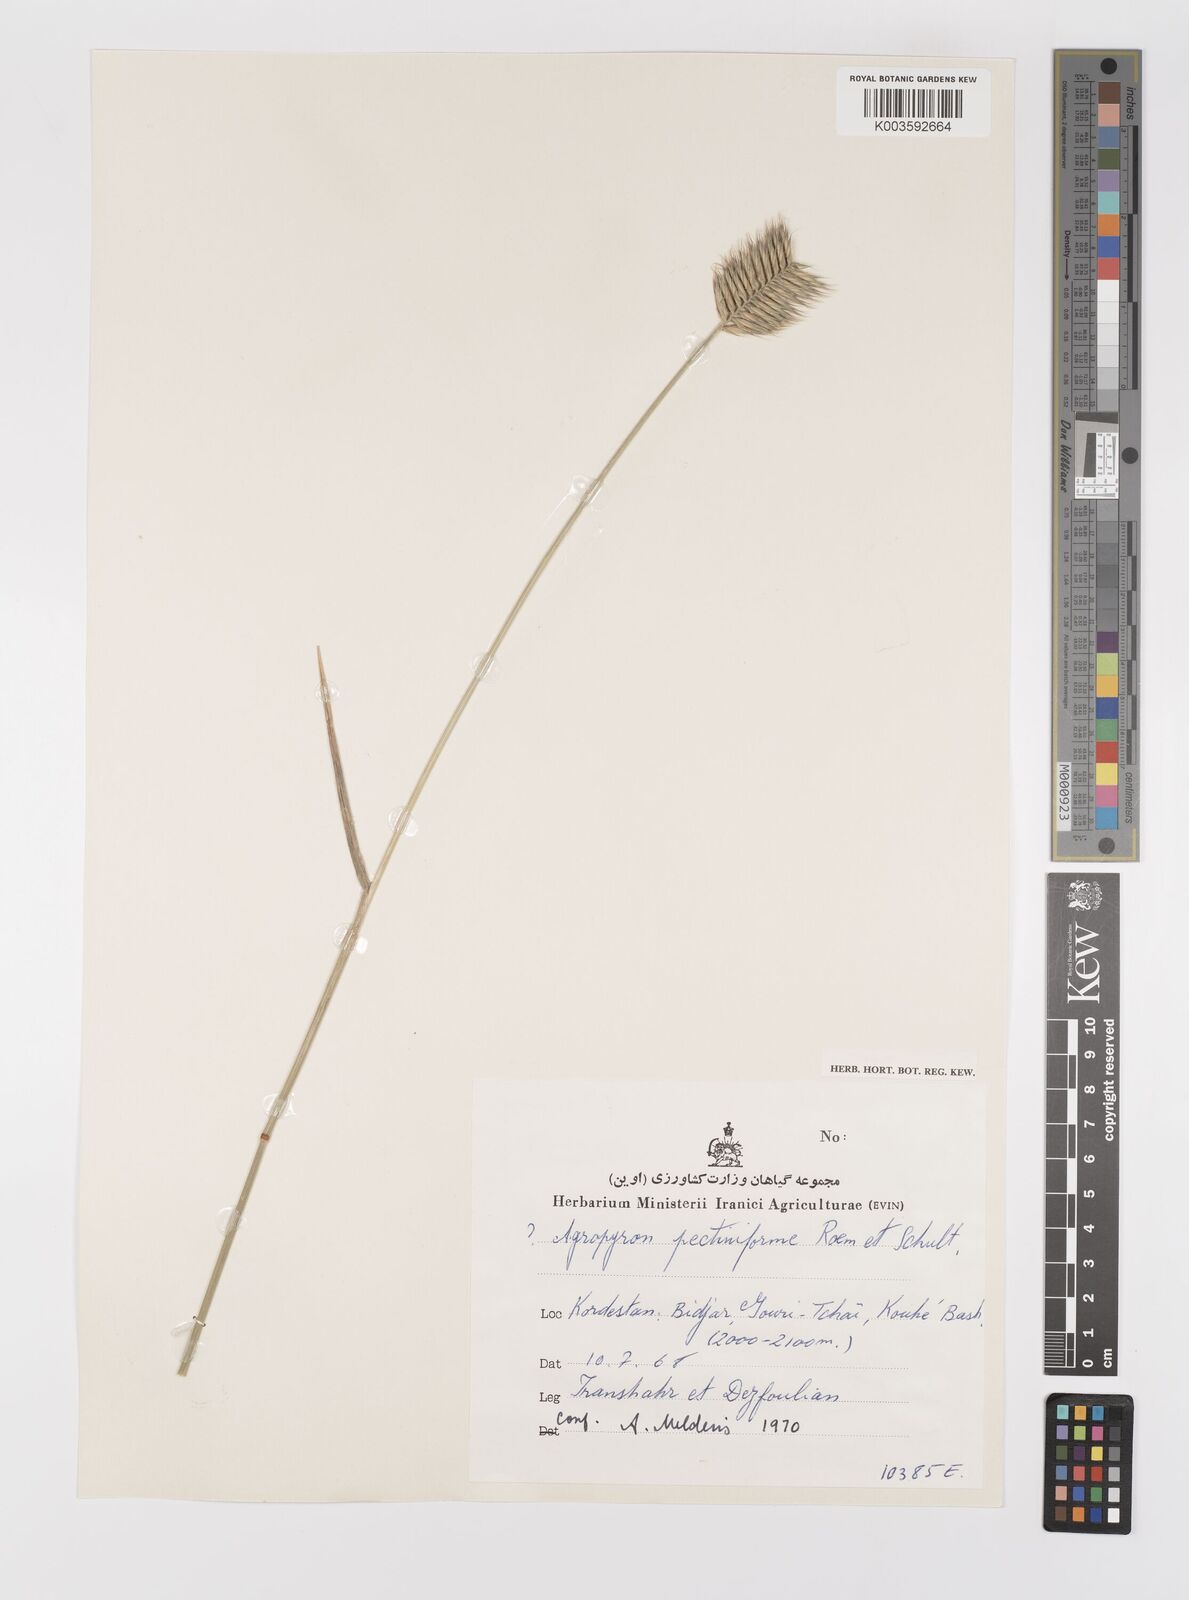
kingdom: Plantae
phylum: Tracheophyta
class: Liliopsida
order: Poales
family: Poaceae
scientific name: Poaceae
